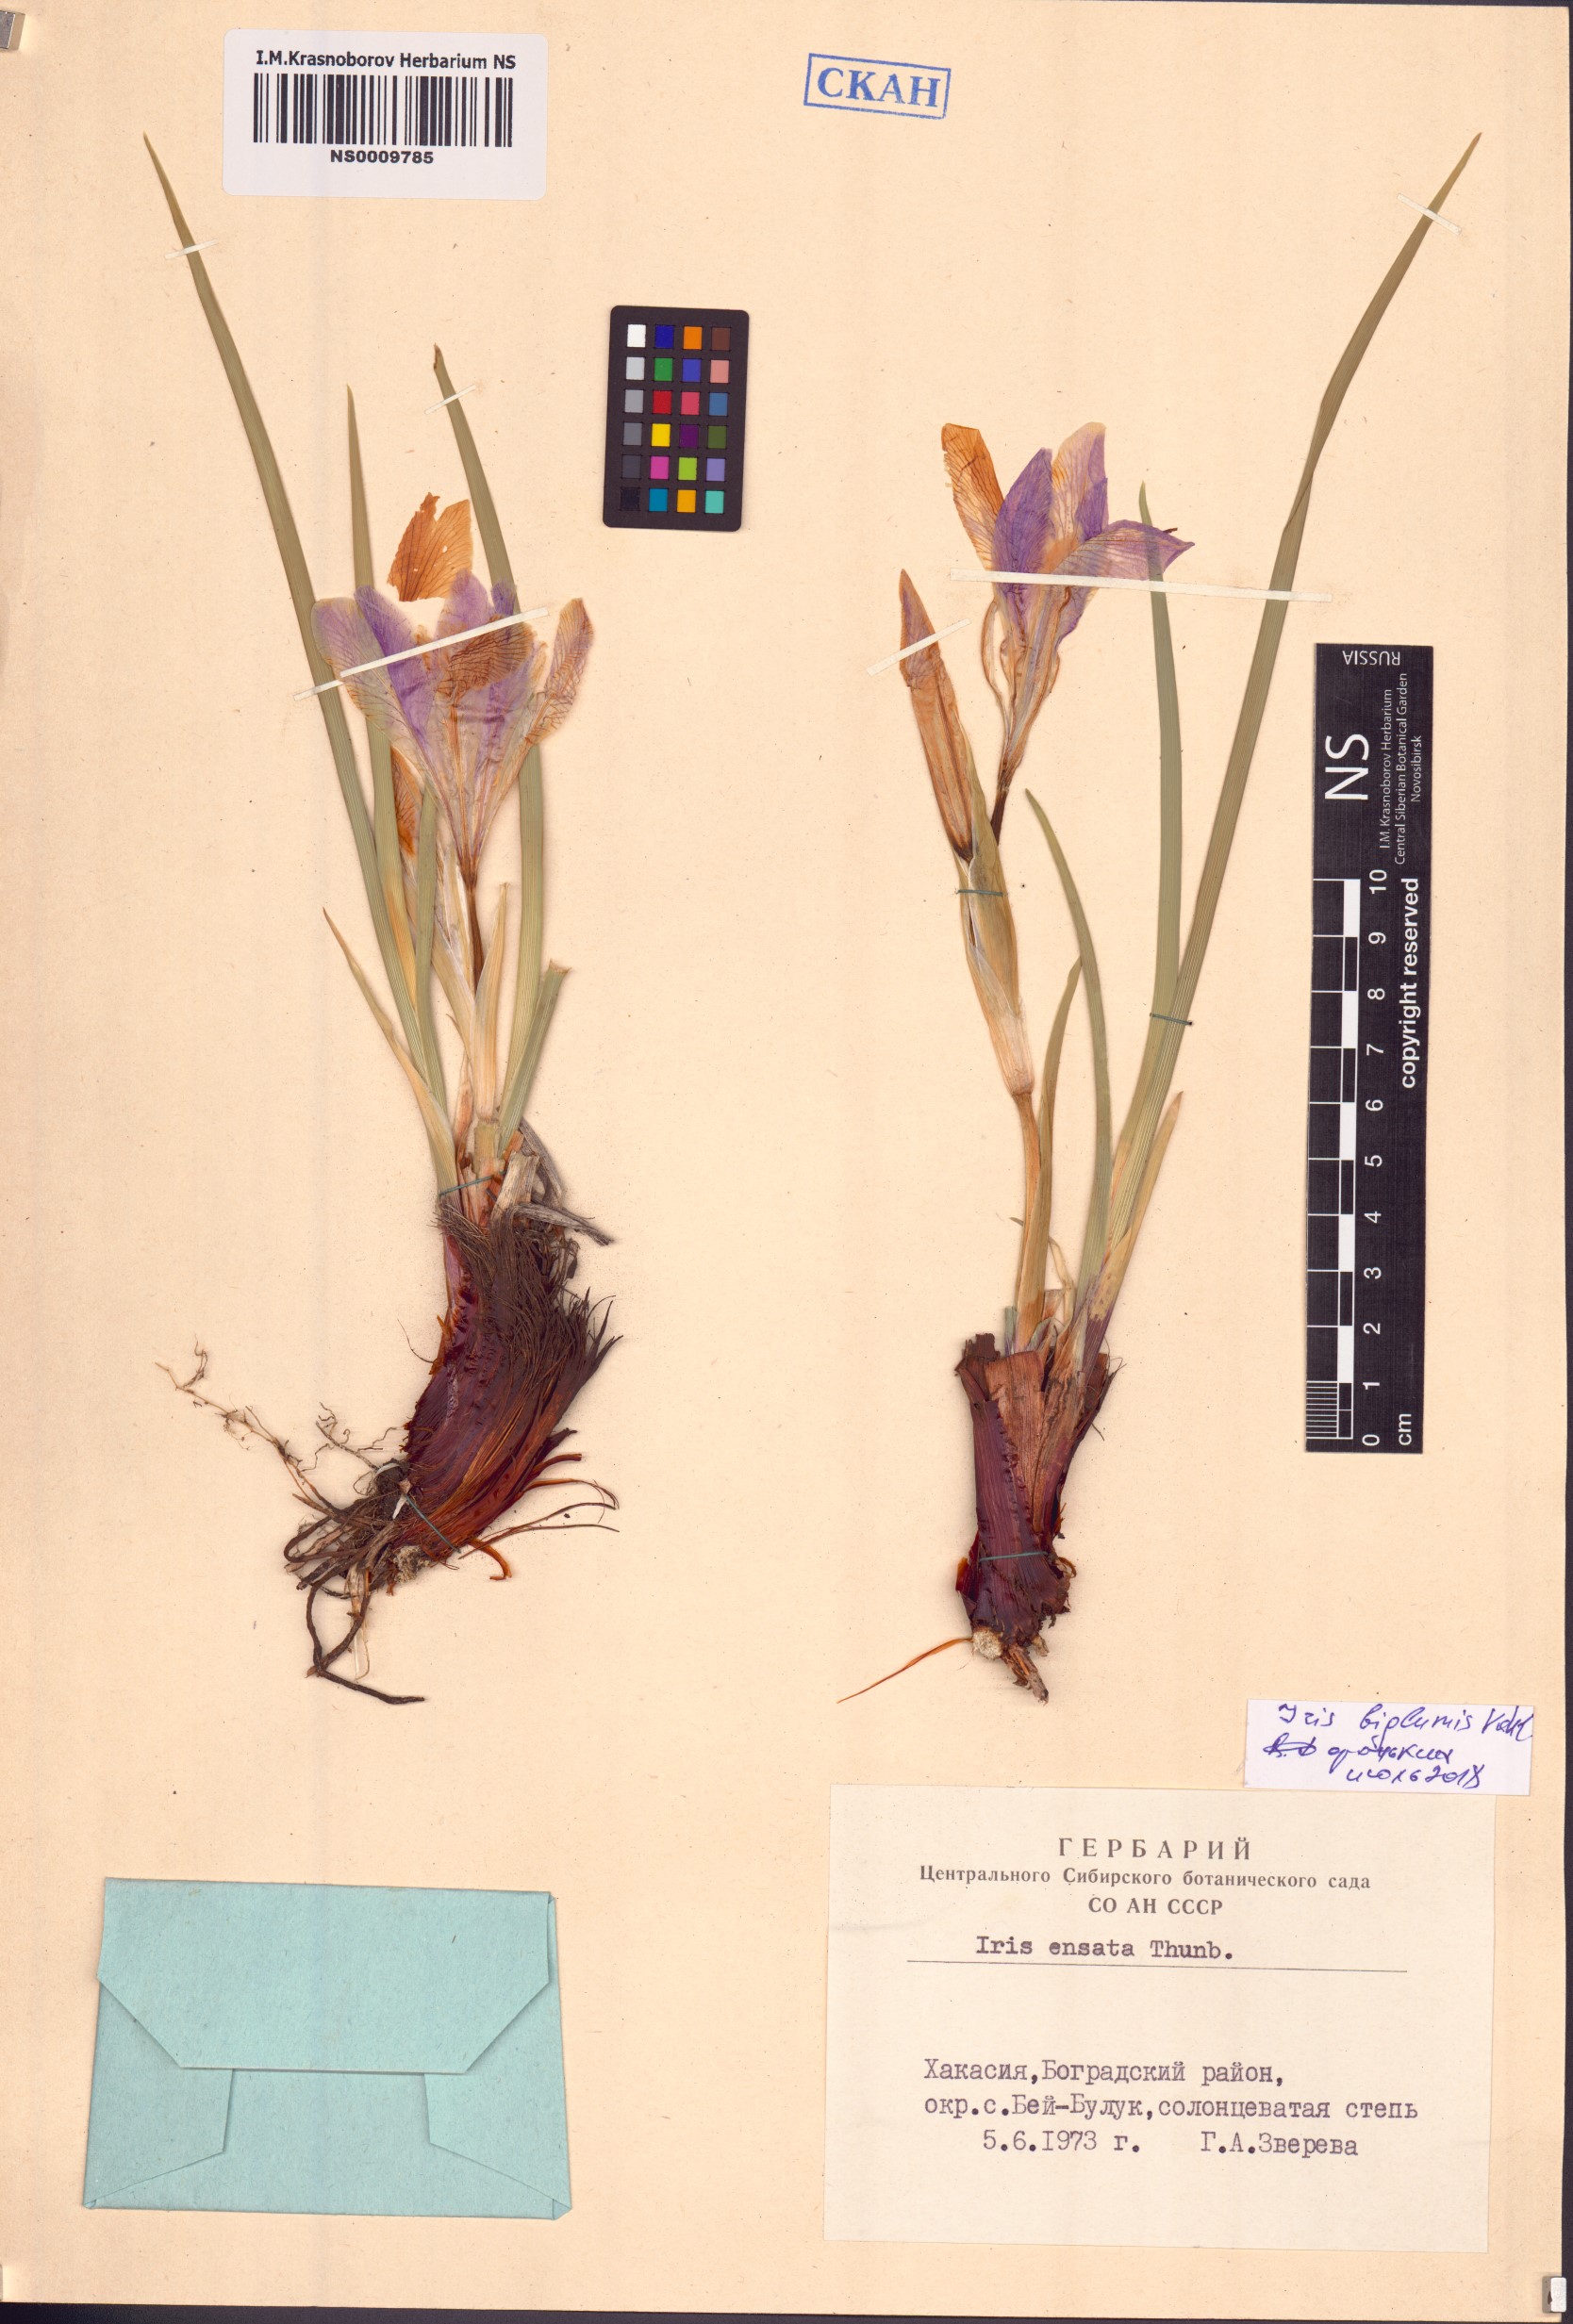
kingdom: Plantae
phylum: Tracheophyta
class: Liliopsida
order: Asparagales
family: Iridaceae
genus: Iris
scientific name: Iris lactea
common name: White-flower chinese iris
